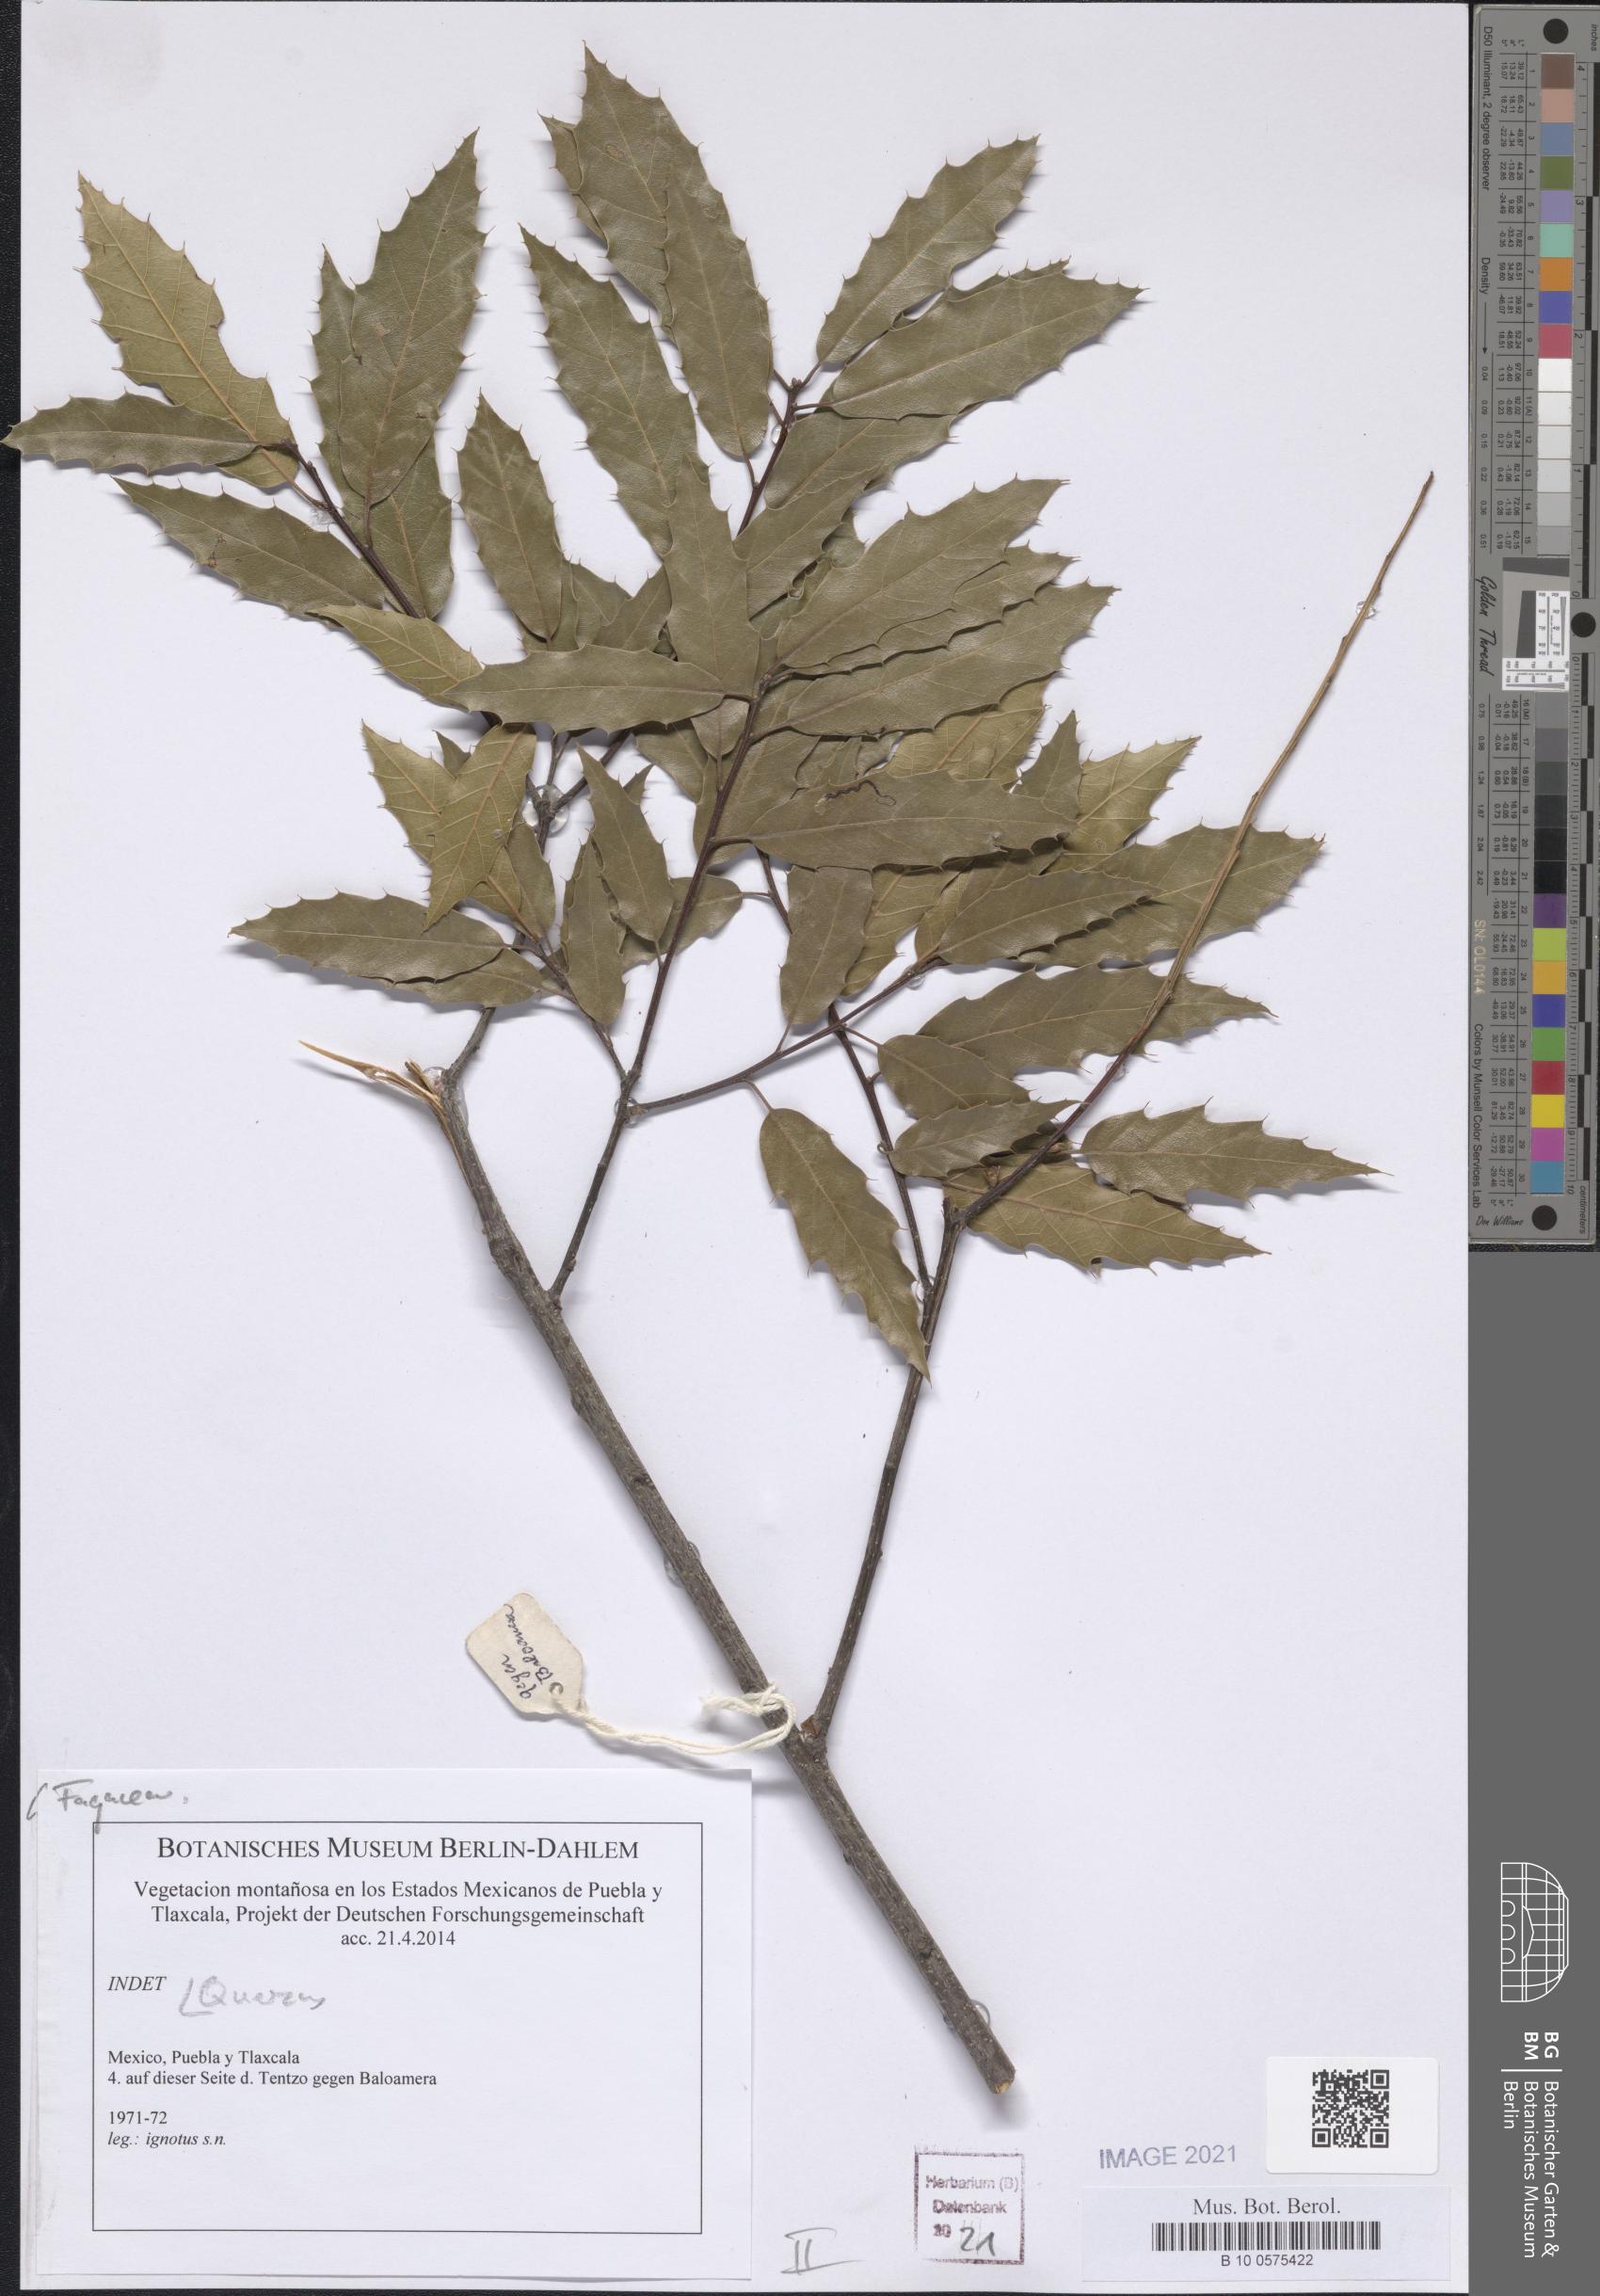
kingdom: Plantae
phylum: Tracheophyta
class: Magnoliopsida
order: Fagales
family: Fagaceae
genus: Quercus
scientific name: Quercus
